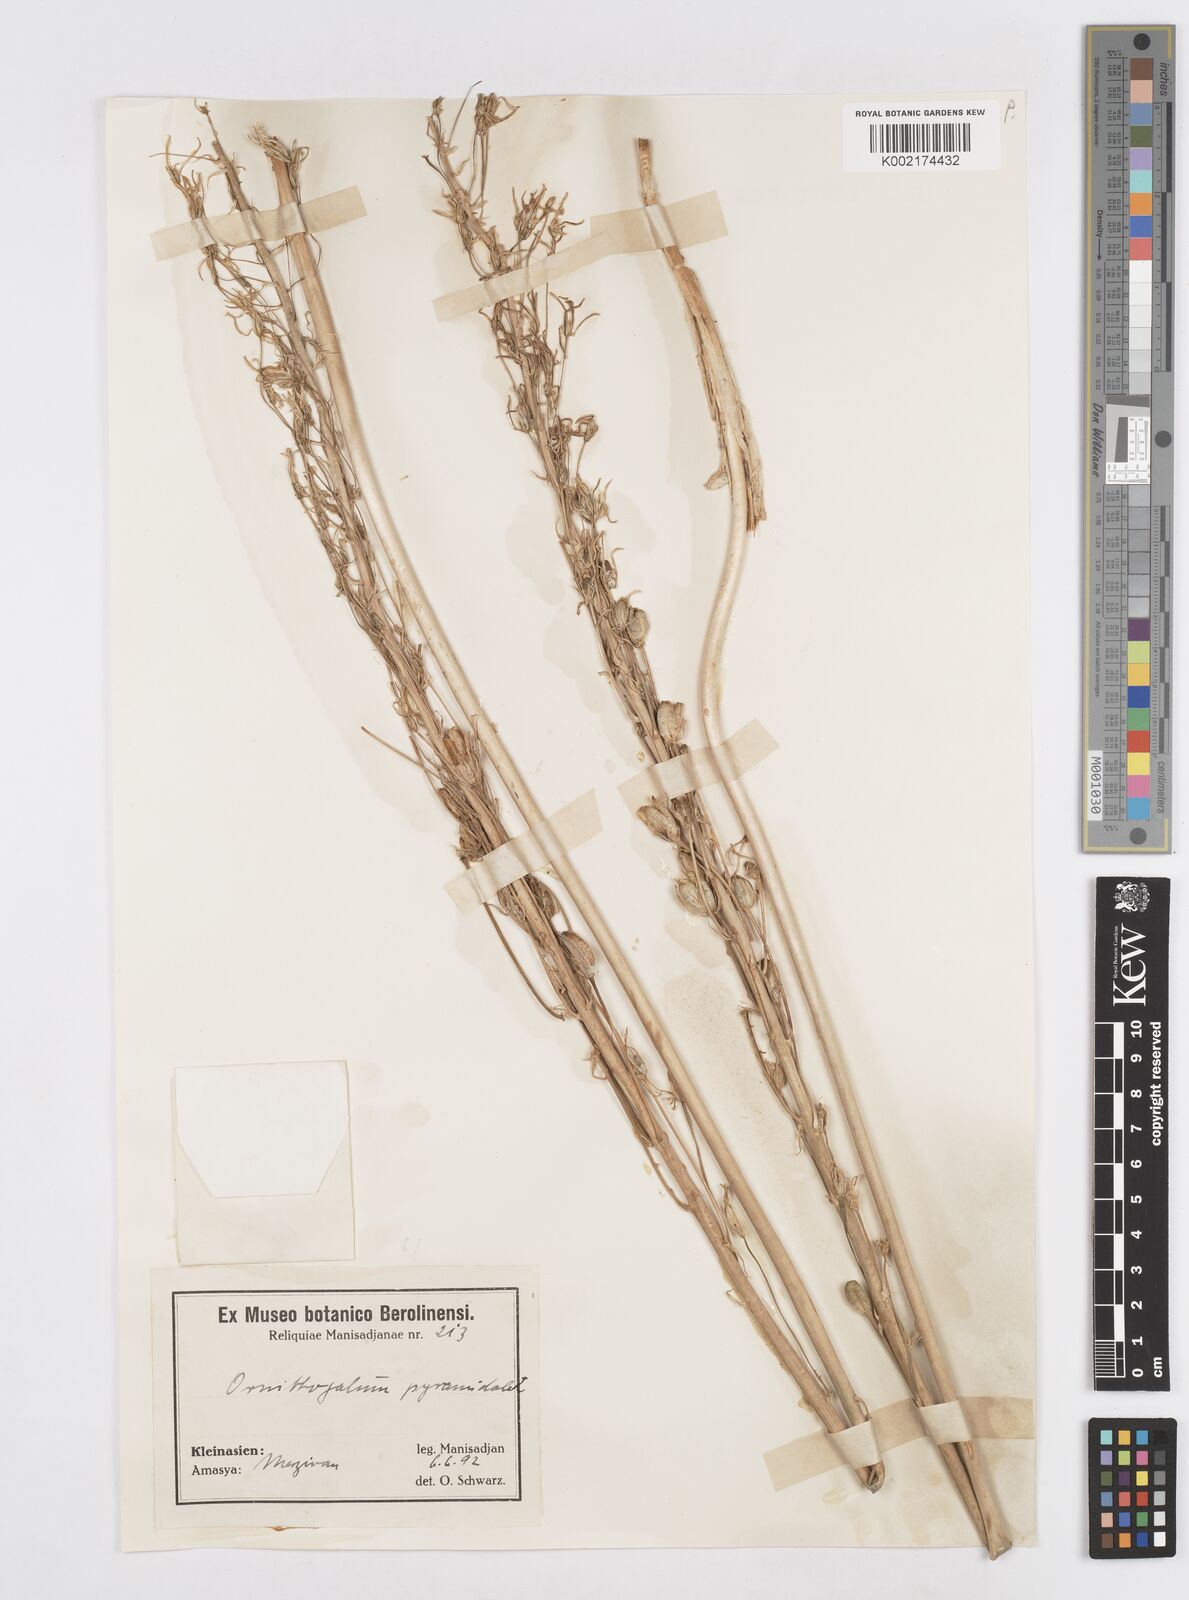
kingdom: Plantae
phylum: Tracheophyta
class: Liliopsida
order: Asparagales
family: Asparagaceae
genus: Ornithogalum
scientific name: Ornithogalum narbonense
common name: Bath-asparagus
